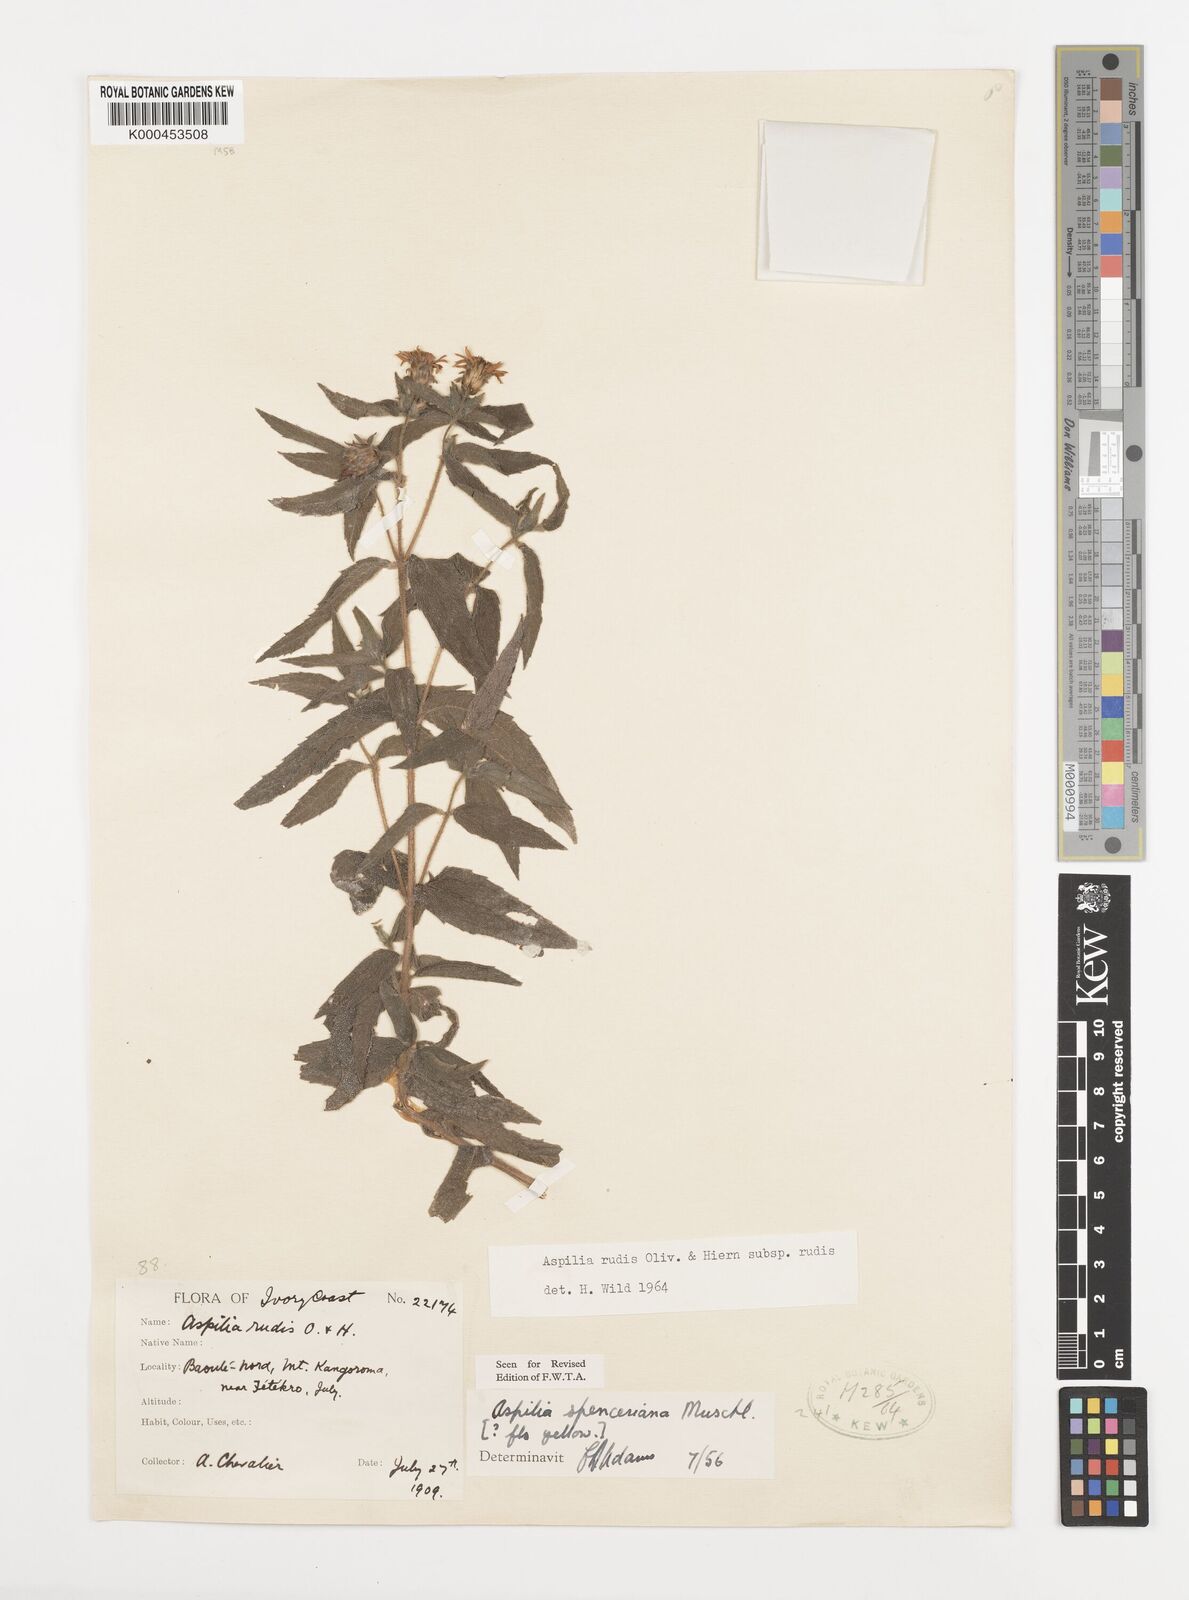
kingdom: Plantae
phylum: Tracheophyta
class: Magnoliopsida
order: Asterales
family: Asteraceae
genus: Aspilia
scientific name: Aspilia rudis
